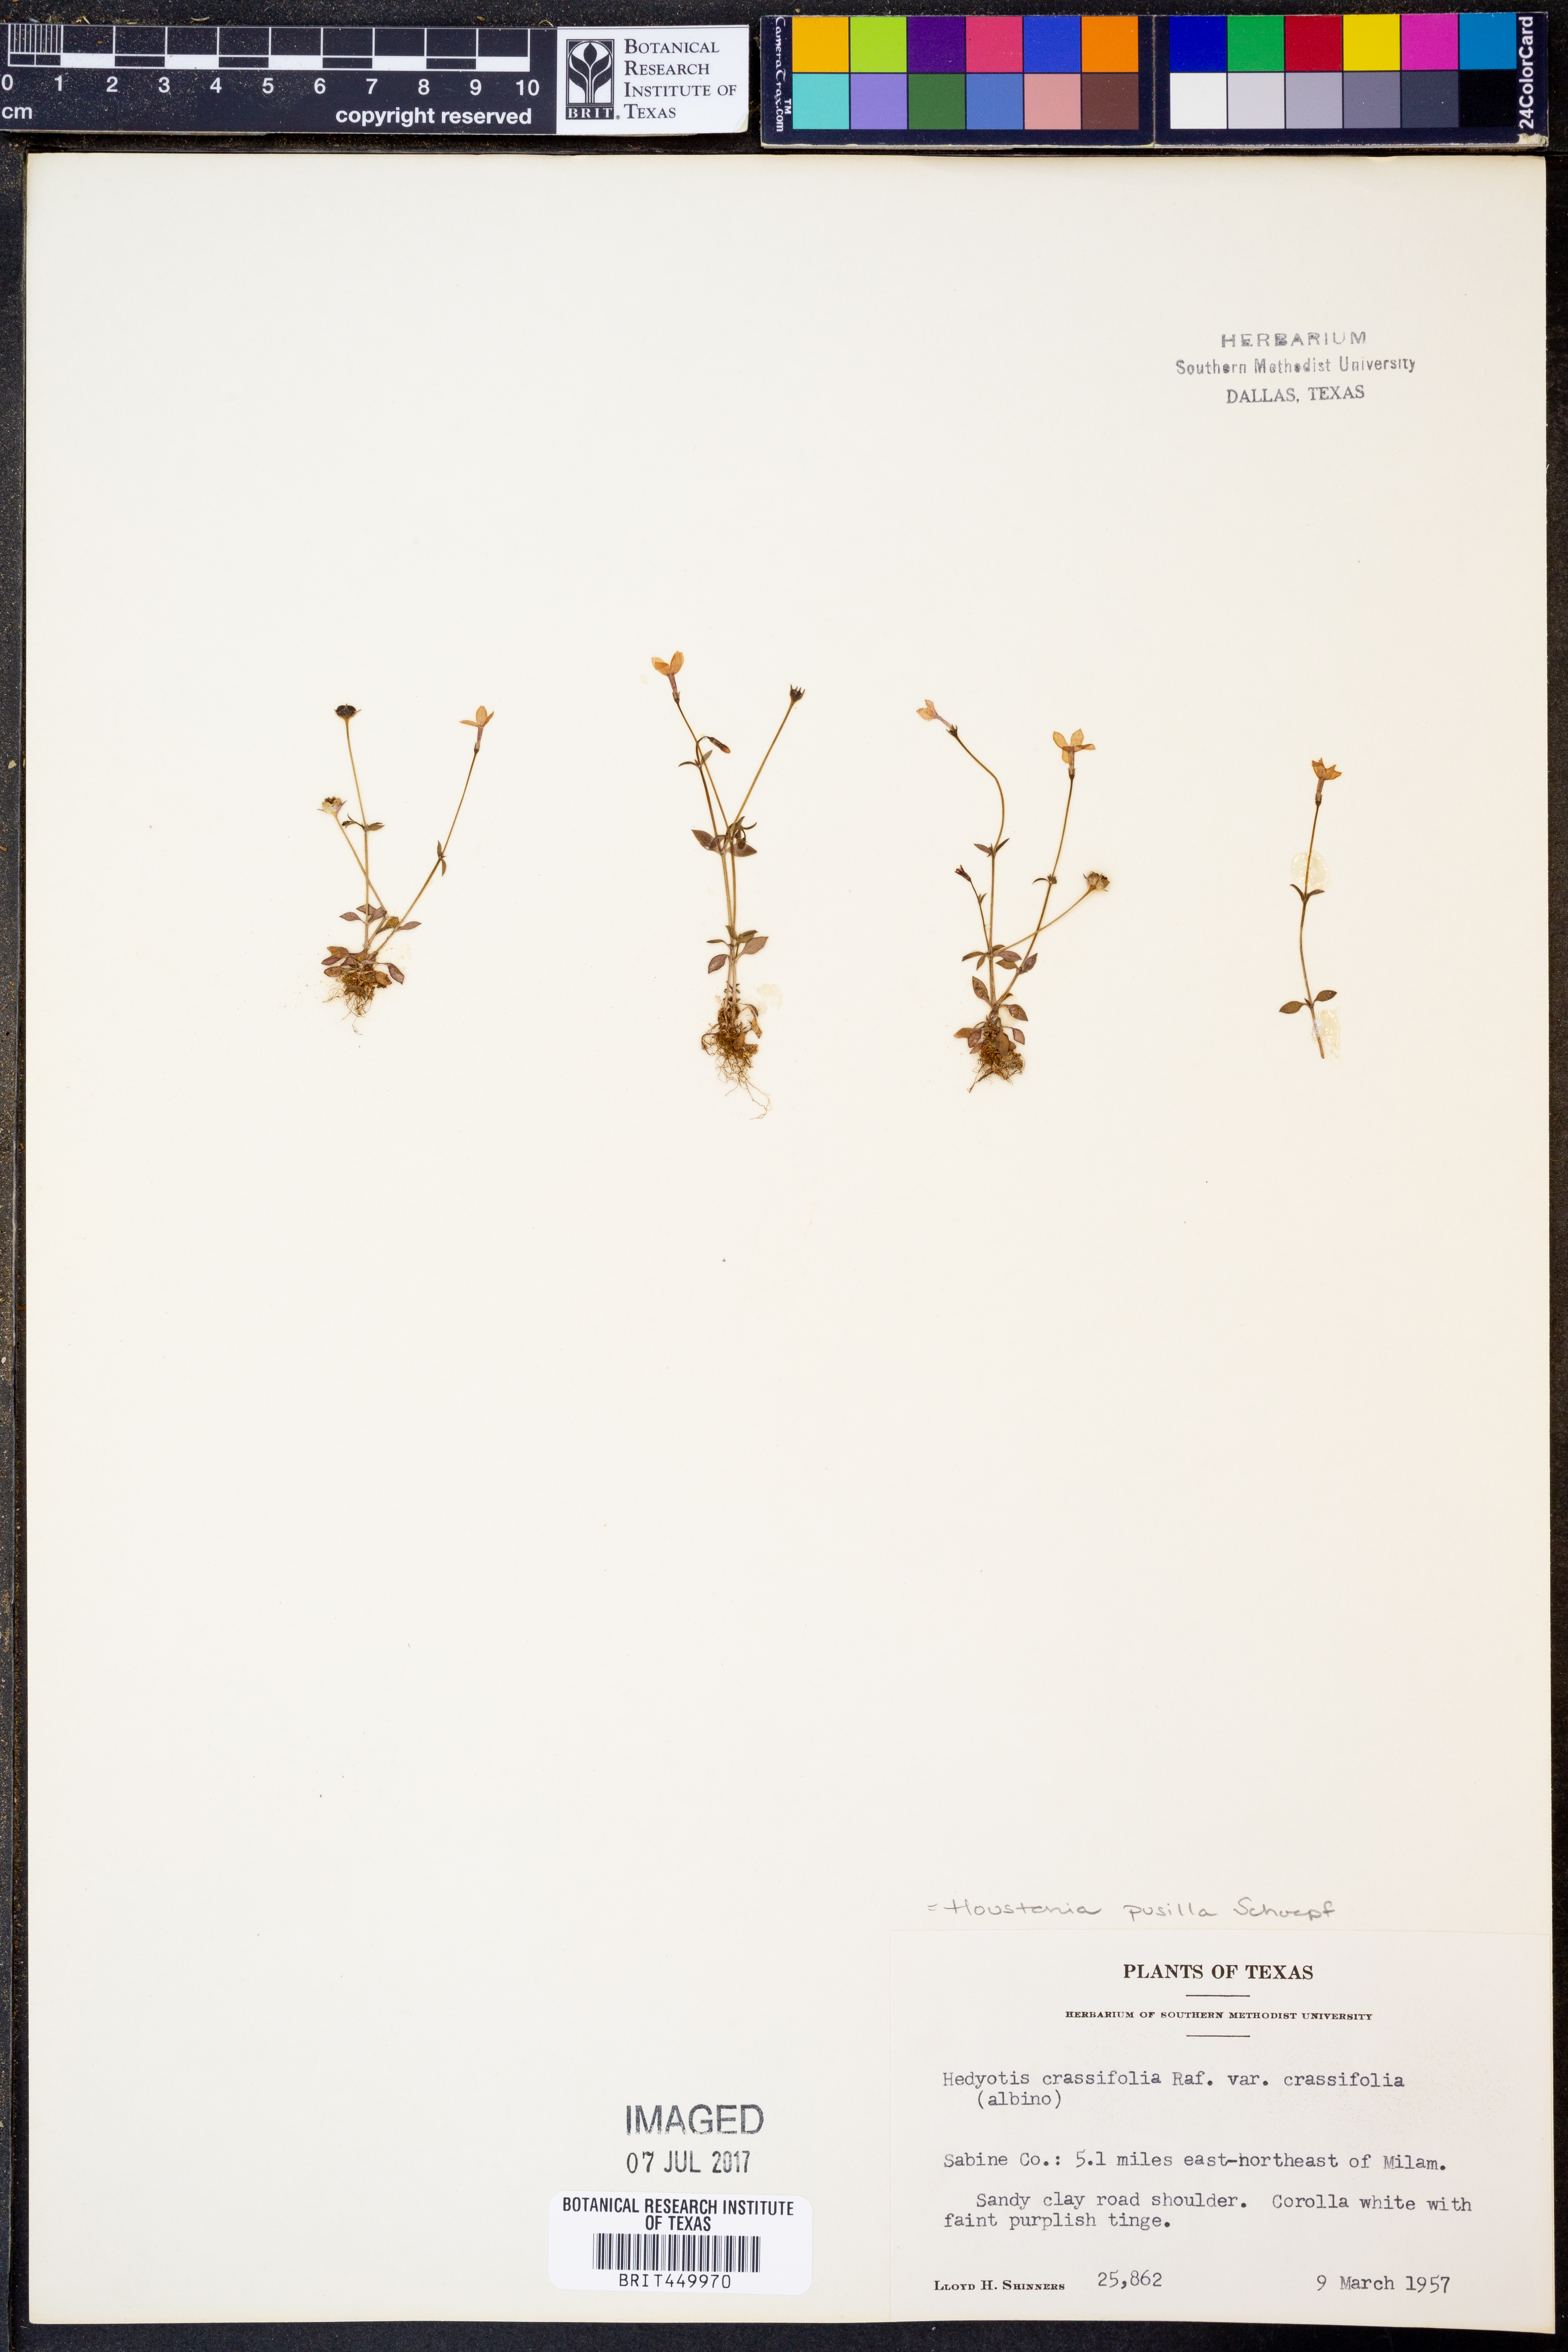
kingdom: Plantae
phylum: Tracheophyta
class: Magnoliopsida
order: Gentianales
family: Rubiaceae
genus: Houstonia
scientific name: Houstonia pusilla
